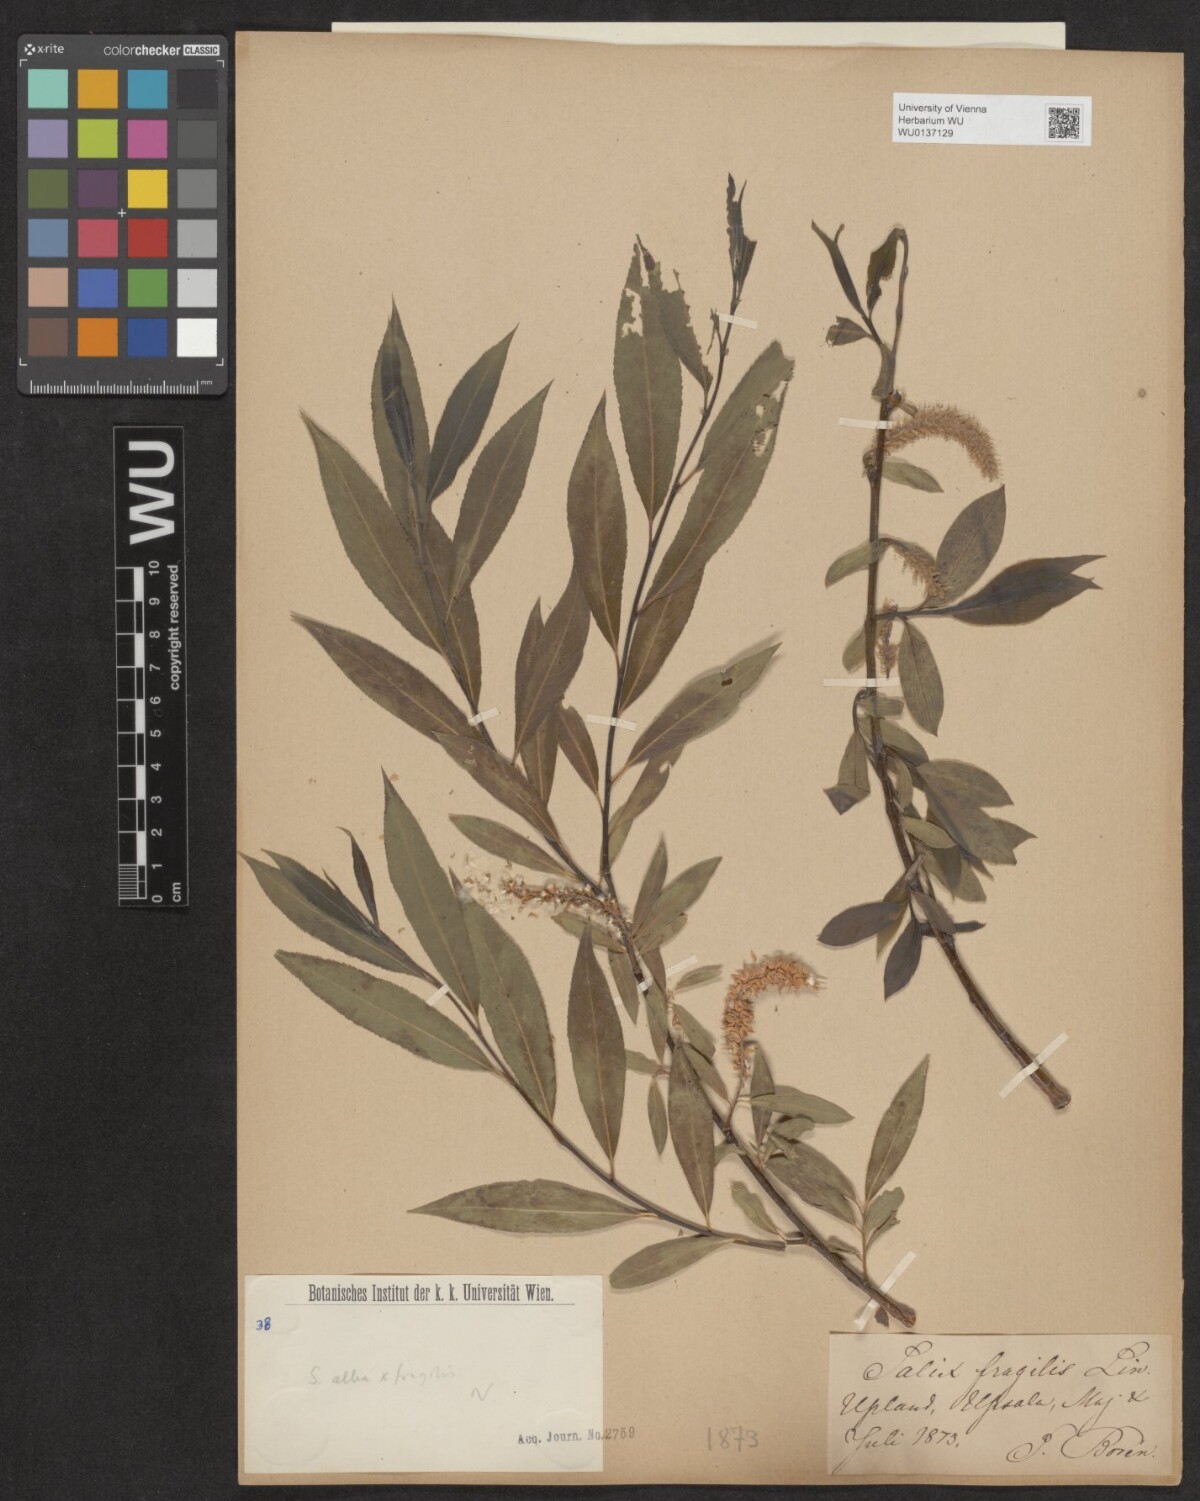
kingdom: Plantae
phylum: Tracheophyta
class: Magnoliopsida
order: Malpighiales
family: Salicaceae
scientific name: Salicaceae
